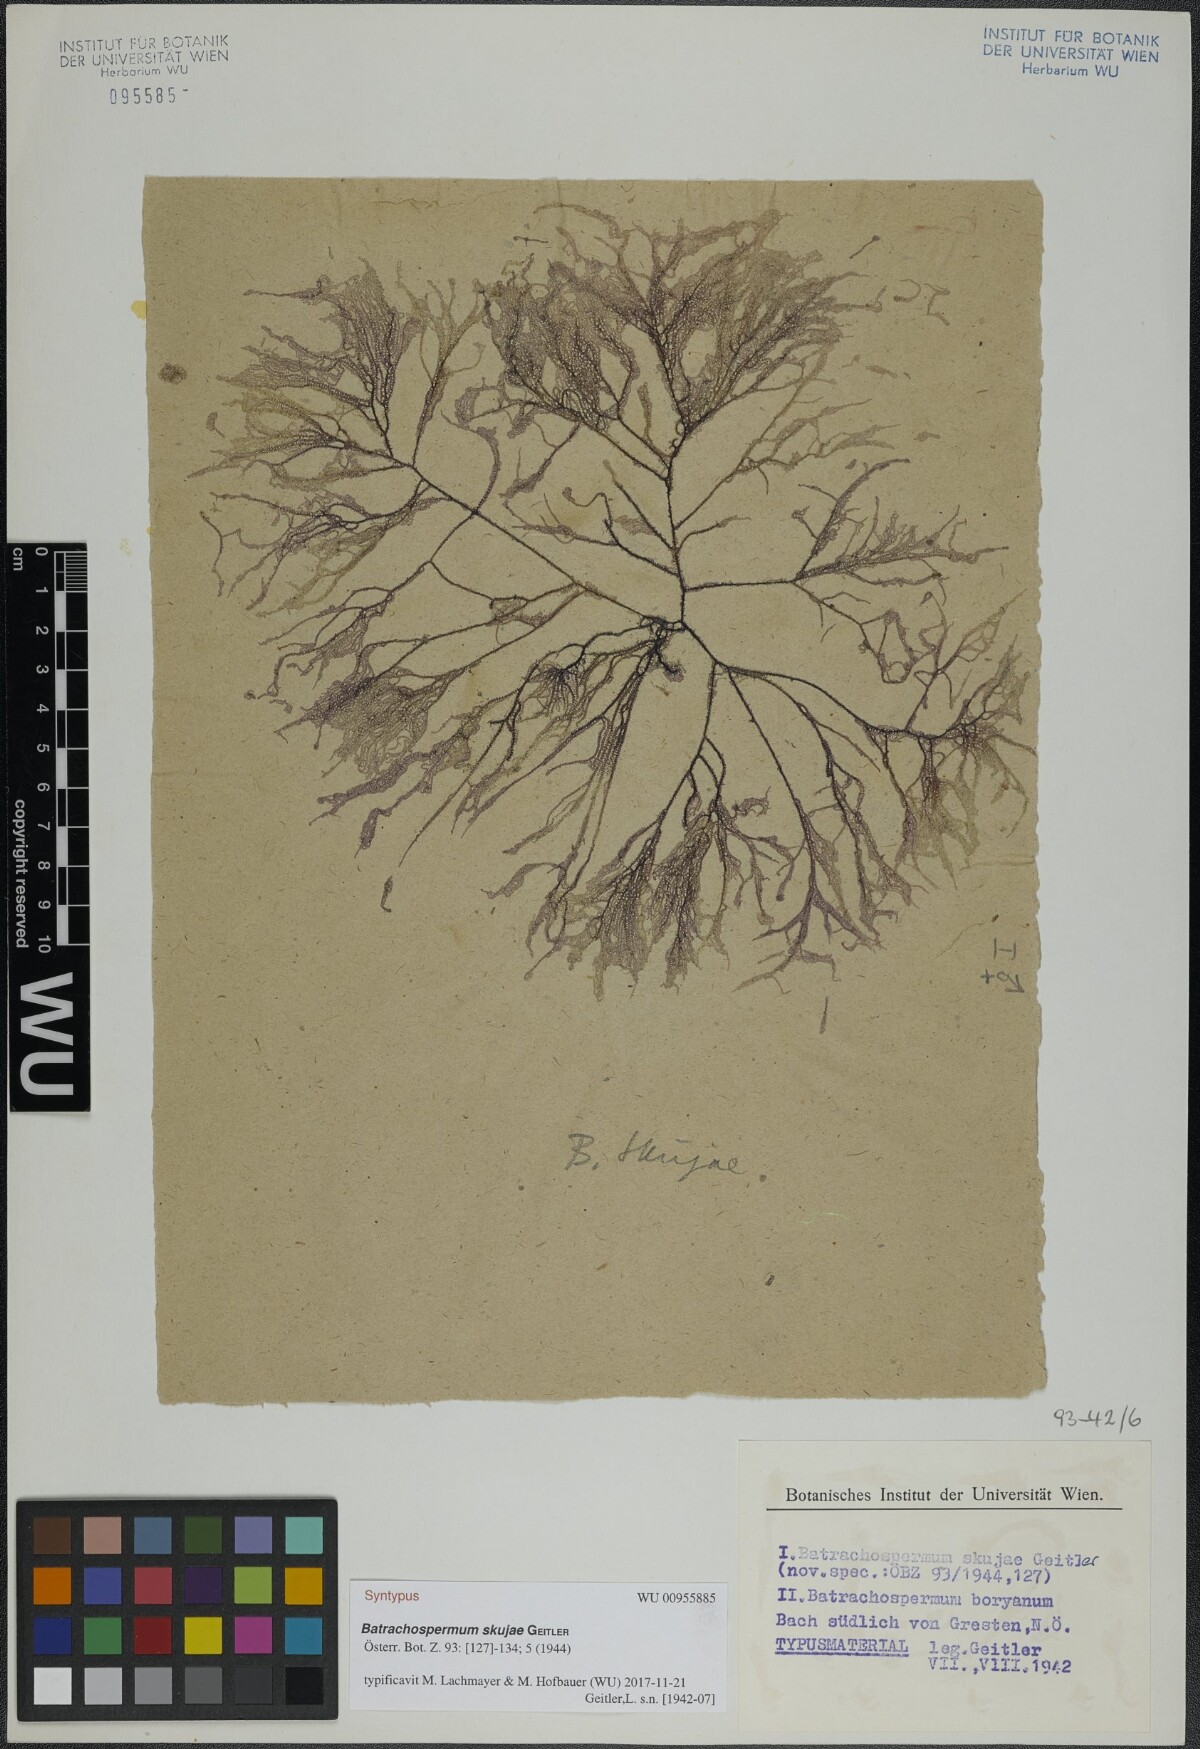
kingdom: Plantae
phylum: Rhodophyta
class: Florideophyceae
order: Batrachospermales
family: Batrachospermaceae
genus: Batrachospermum
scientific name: Batrachospermum gelatinosum
